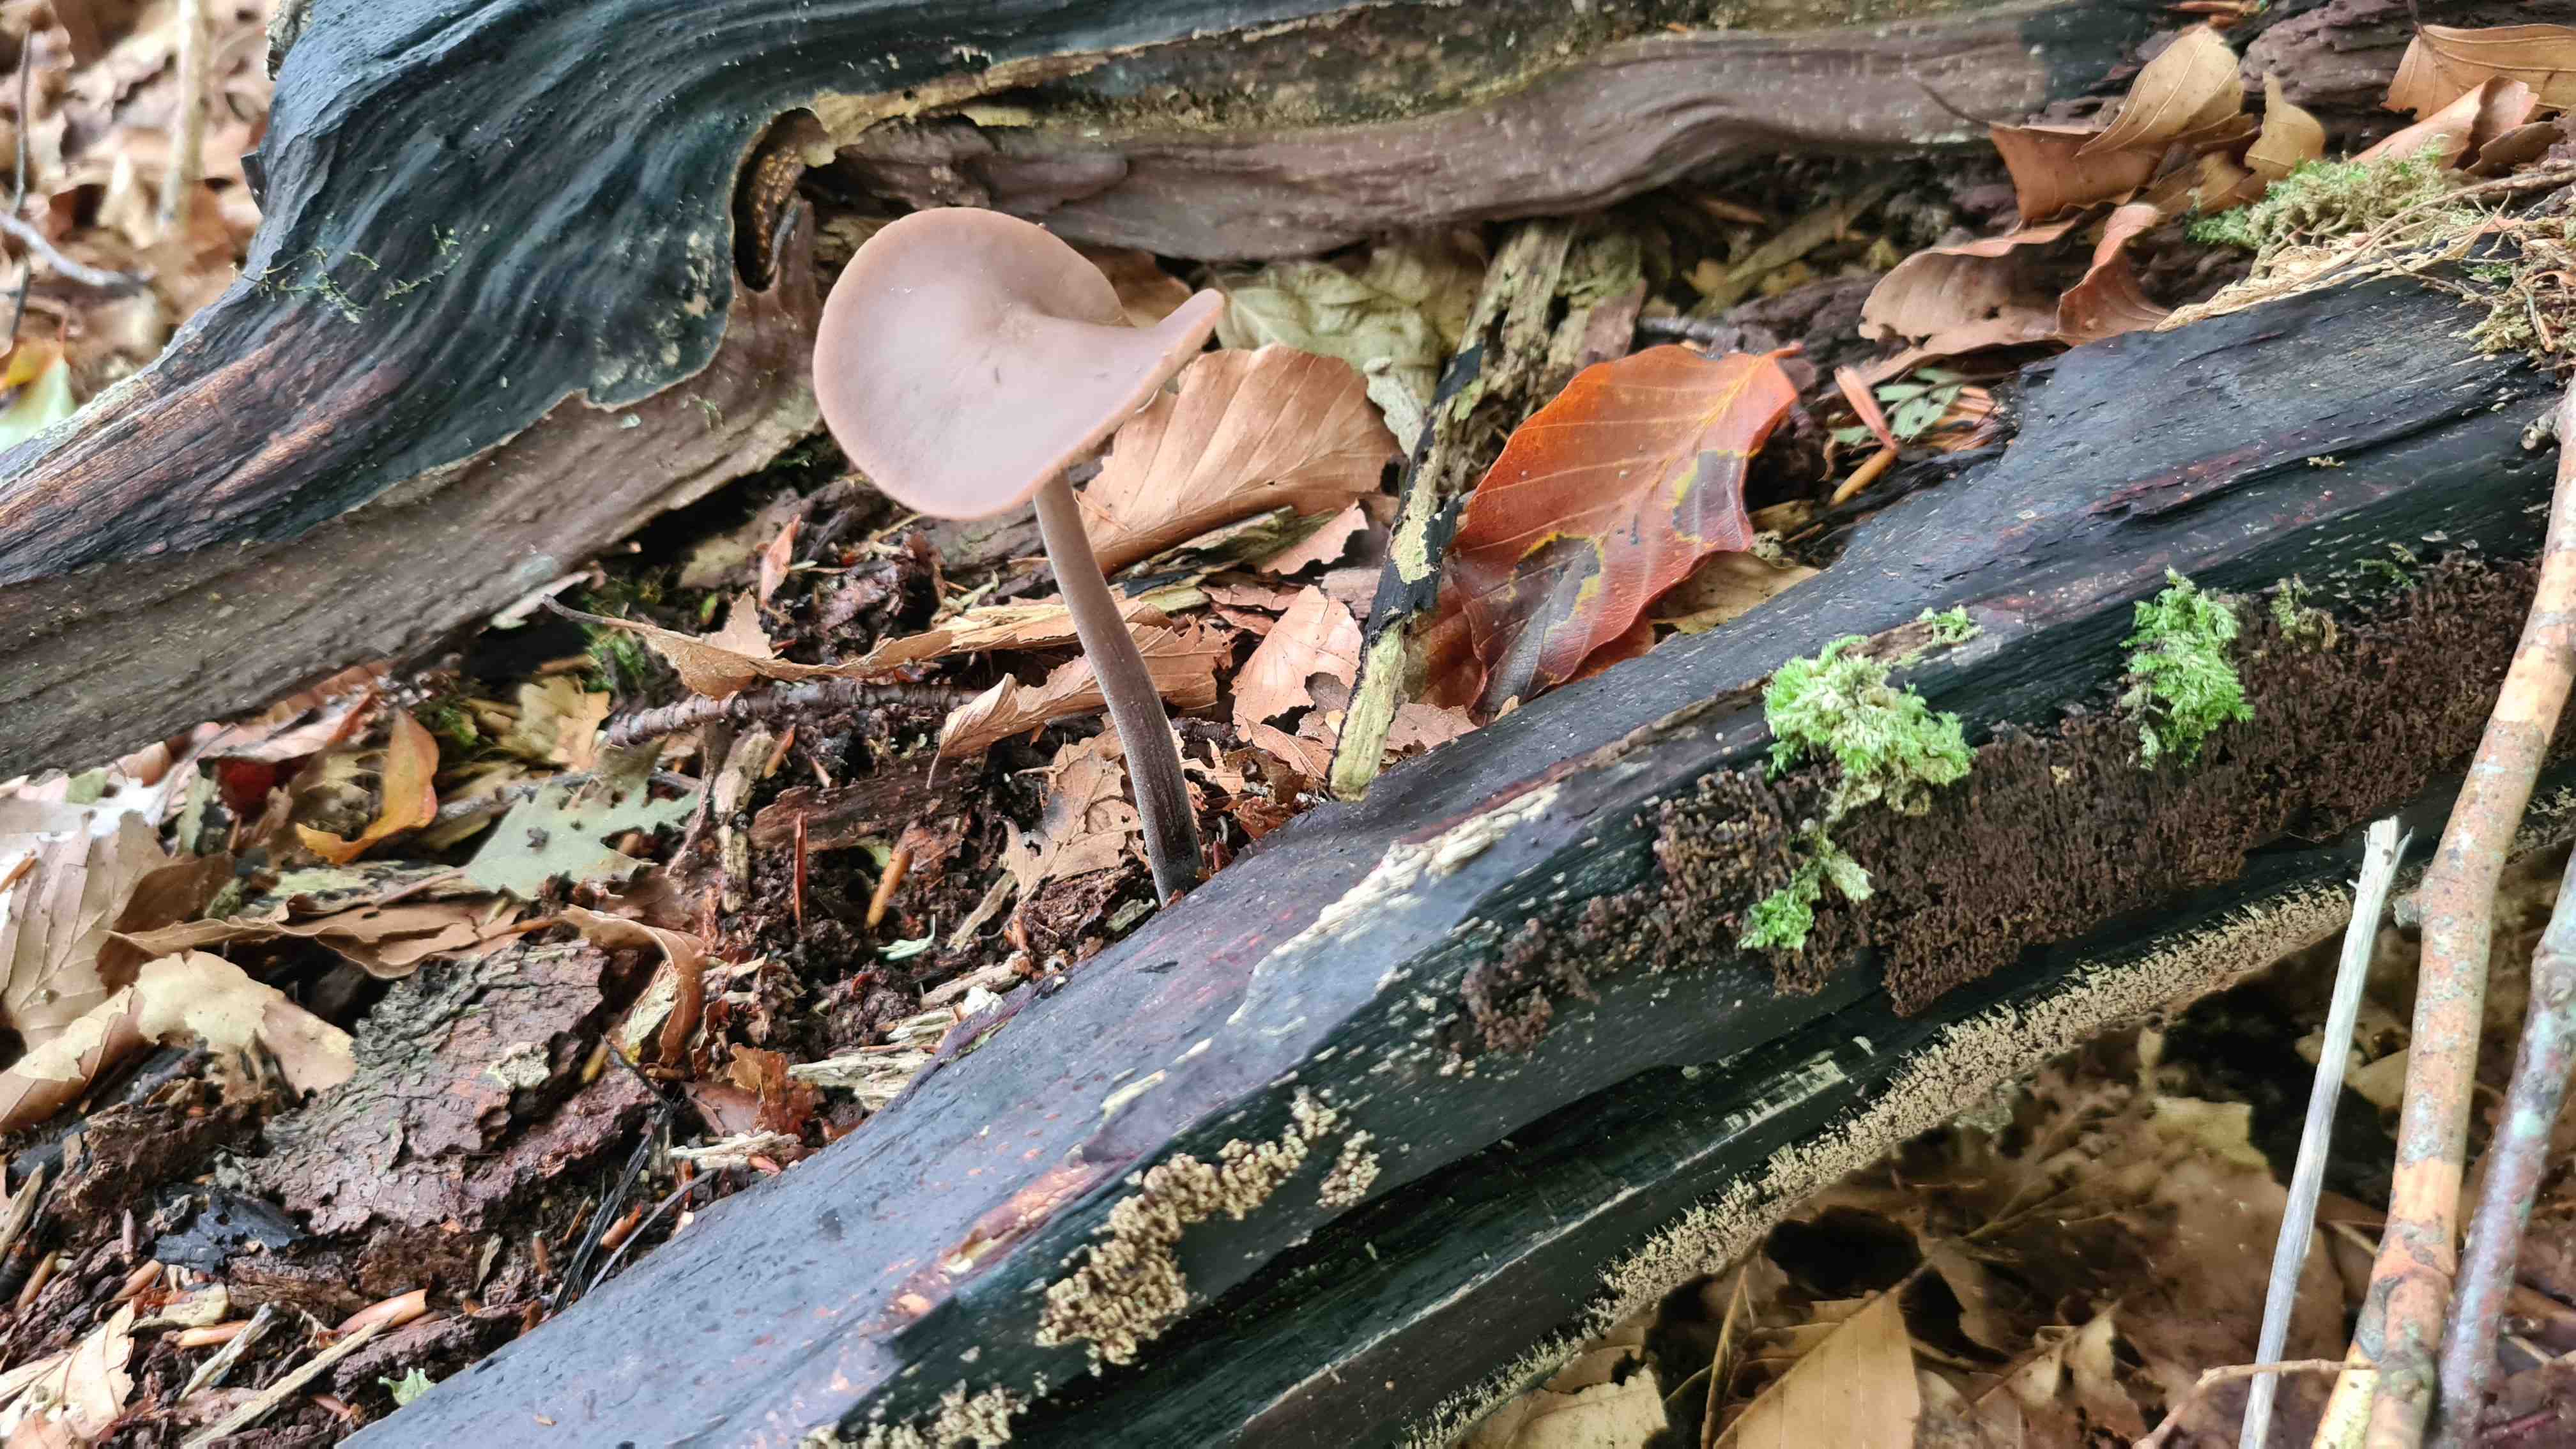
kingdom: Fungi
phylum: Basidiomycota
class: Agaricomycetes
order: Agaricales
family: Omphalotaceae
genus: Mycetinis
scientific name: Mycetinis alliaceus
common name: stor løghat
